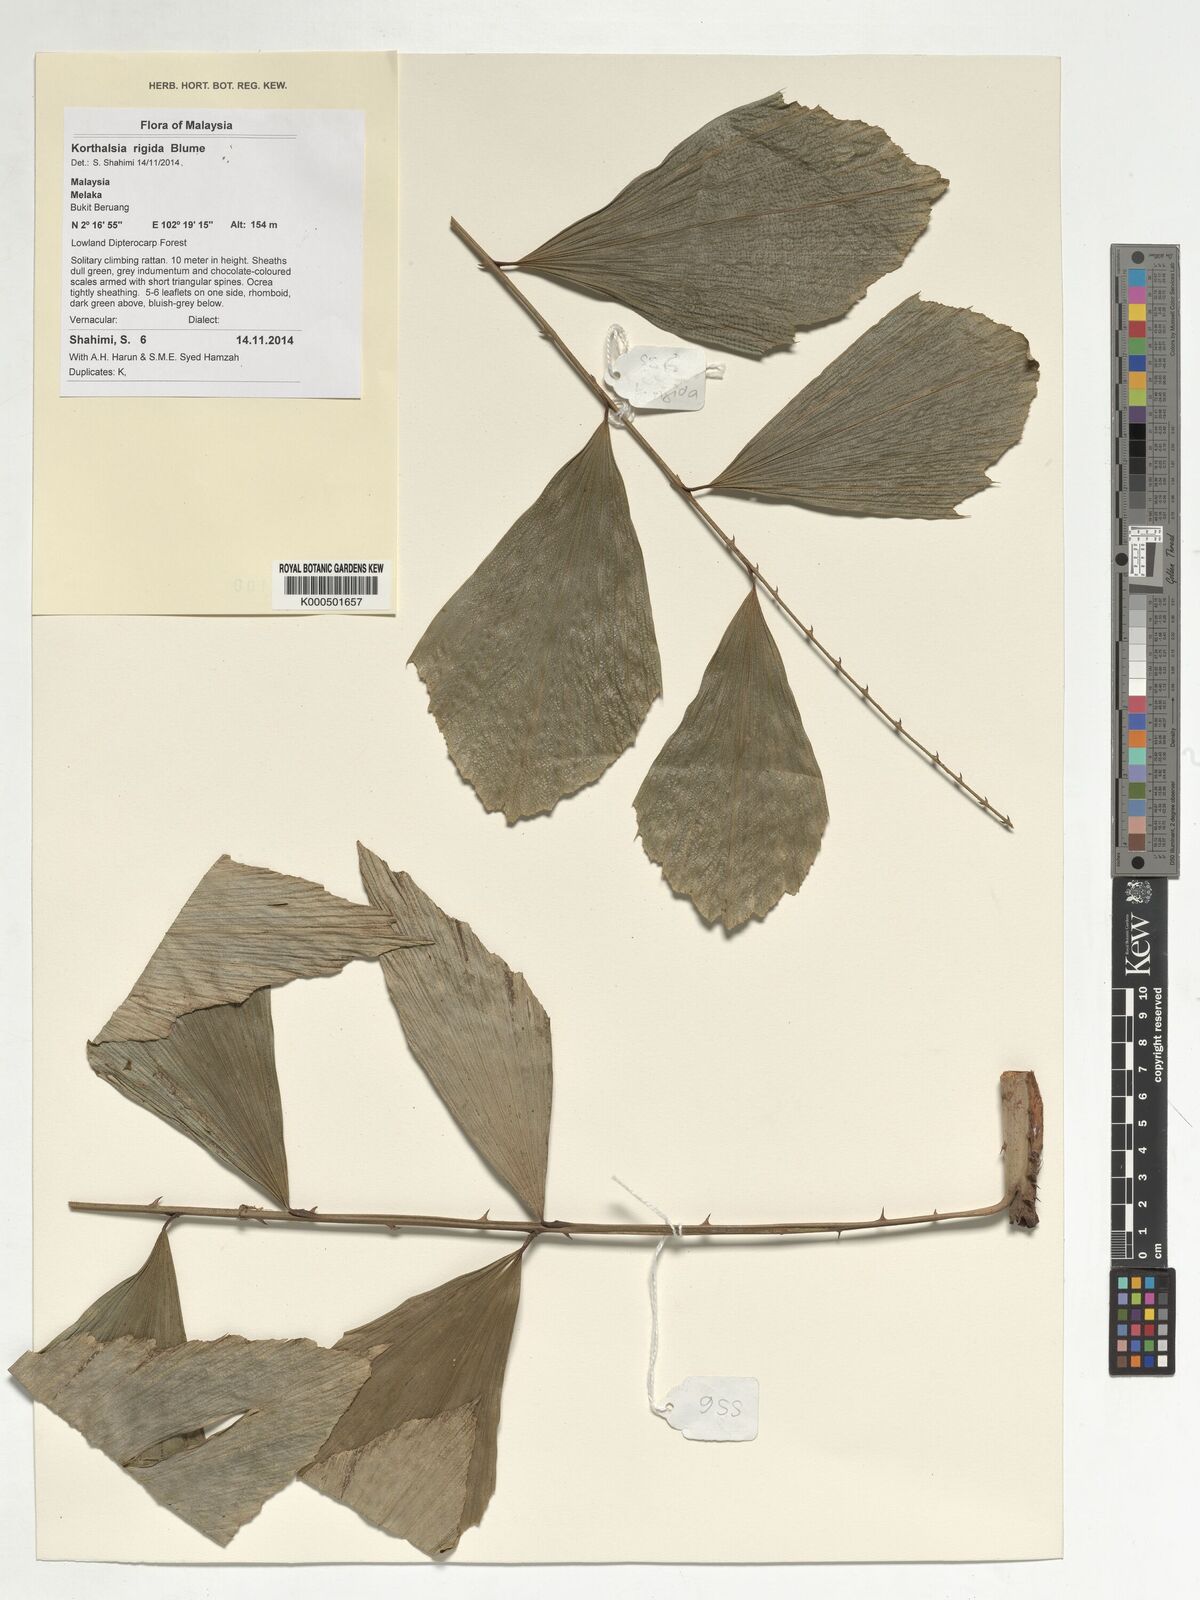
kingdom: Plantae
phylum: Tracheophyta
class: Liliopsida
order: Arecales
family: Arecaceae
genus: Korthalsia
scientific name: Korthalsia rigida
